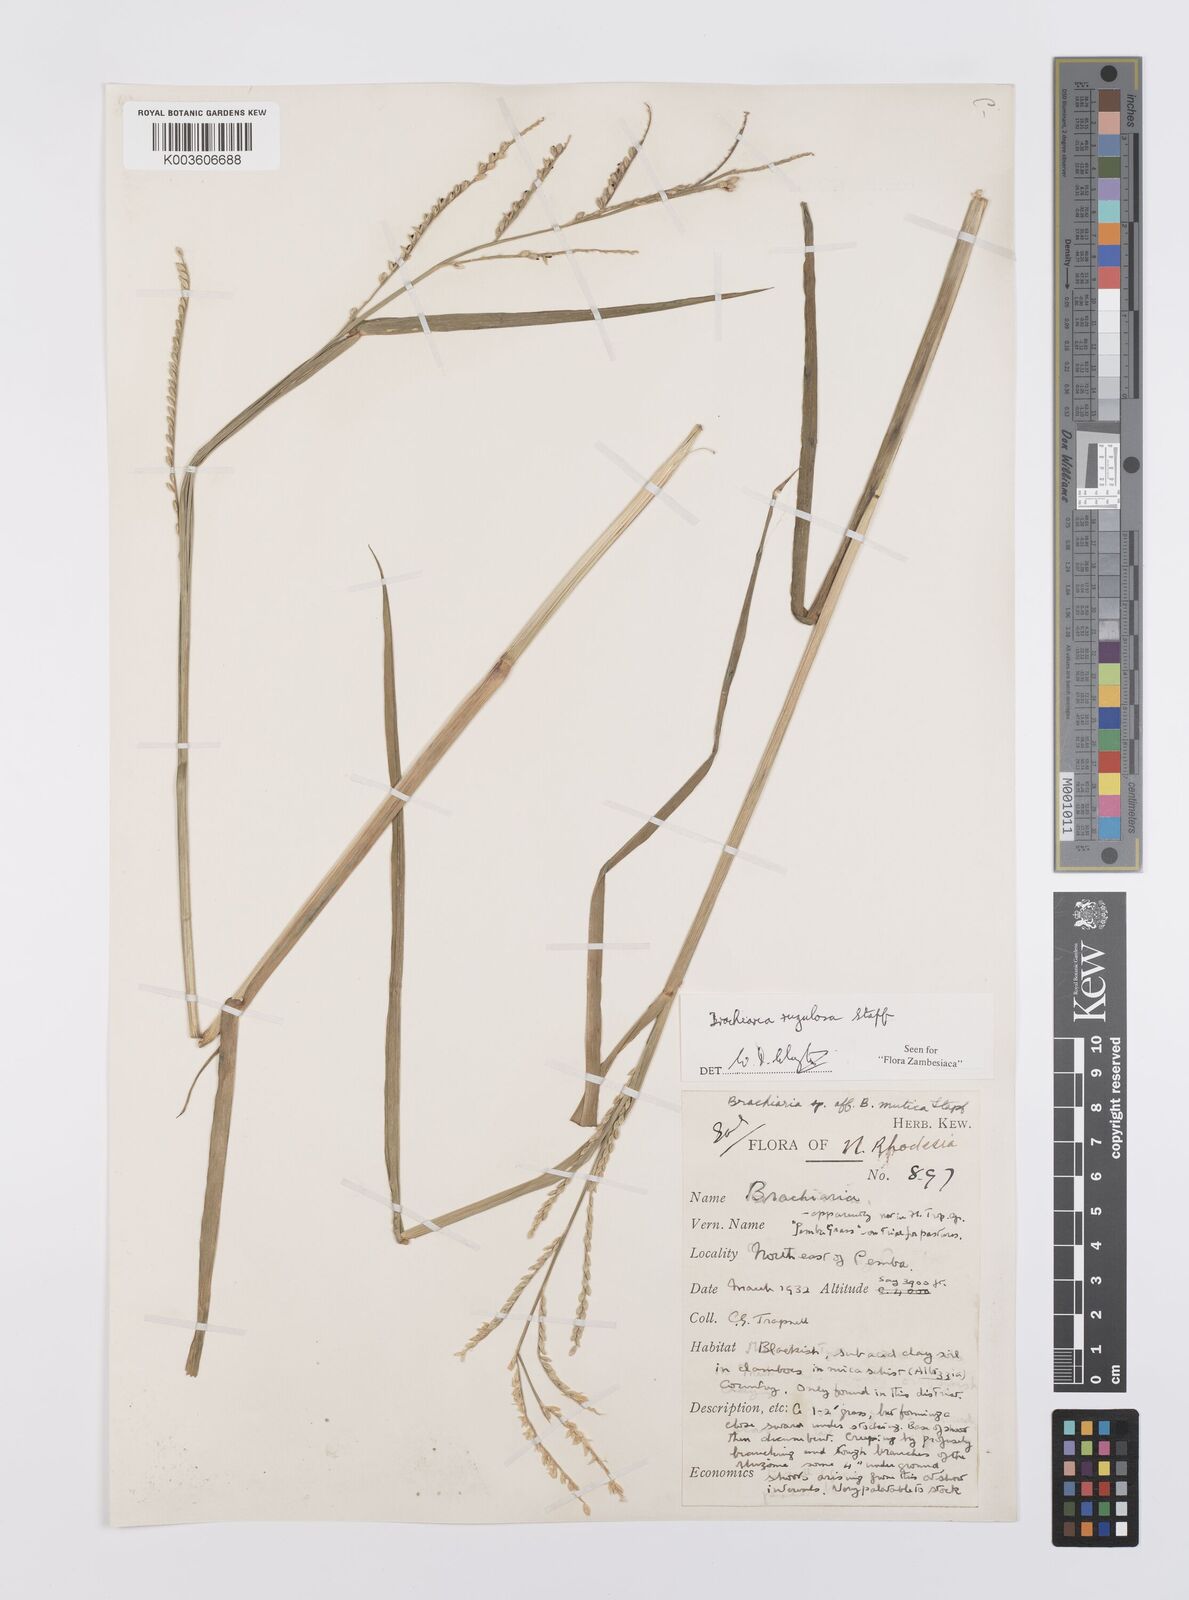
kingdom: Plantae
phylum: Tracheophyta
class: Liliopsida
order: Poales
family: Poaceae
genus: Urochloa
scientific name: Urochloa rugulosa
